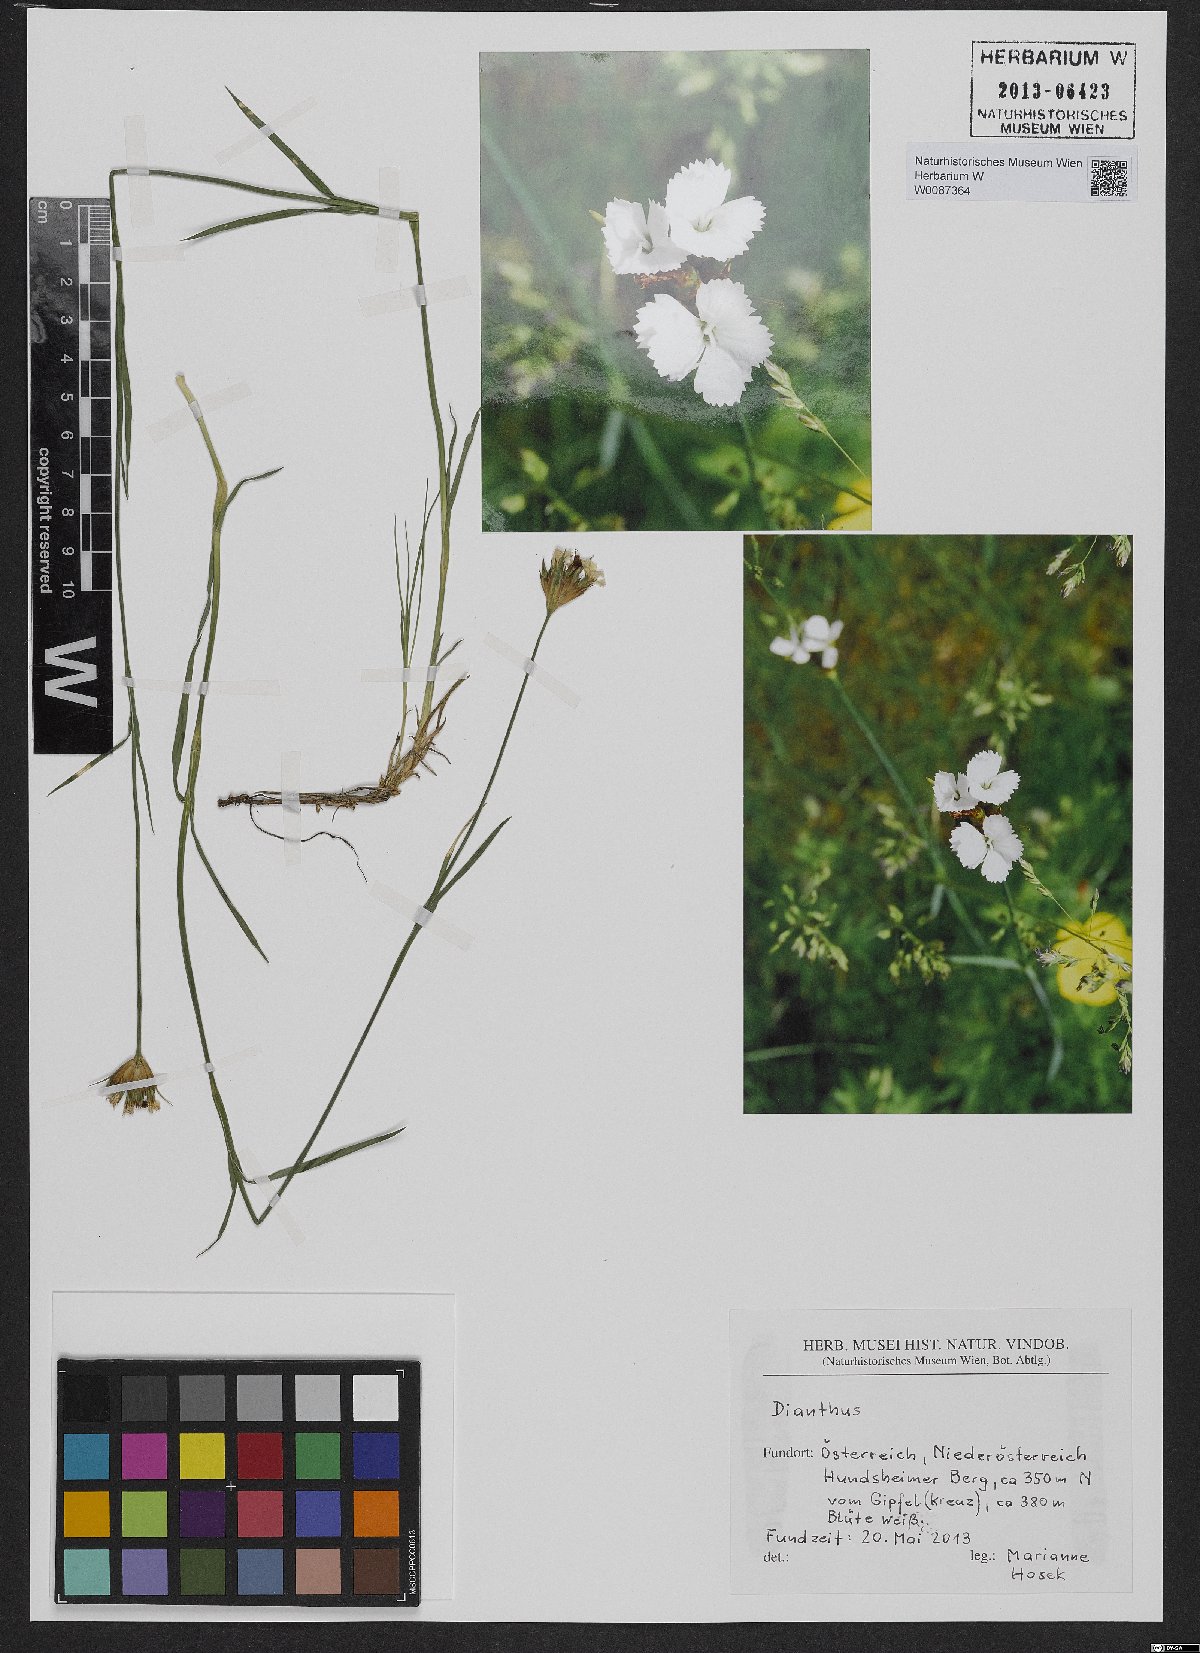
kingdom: Plantae
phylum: Tracheophyta
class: Magnoliopsida
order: Caryophyllales
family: Caryophyllaceae
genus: Dianthus
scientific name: Dianthus pontederae
